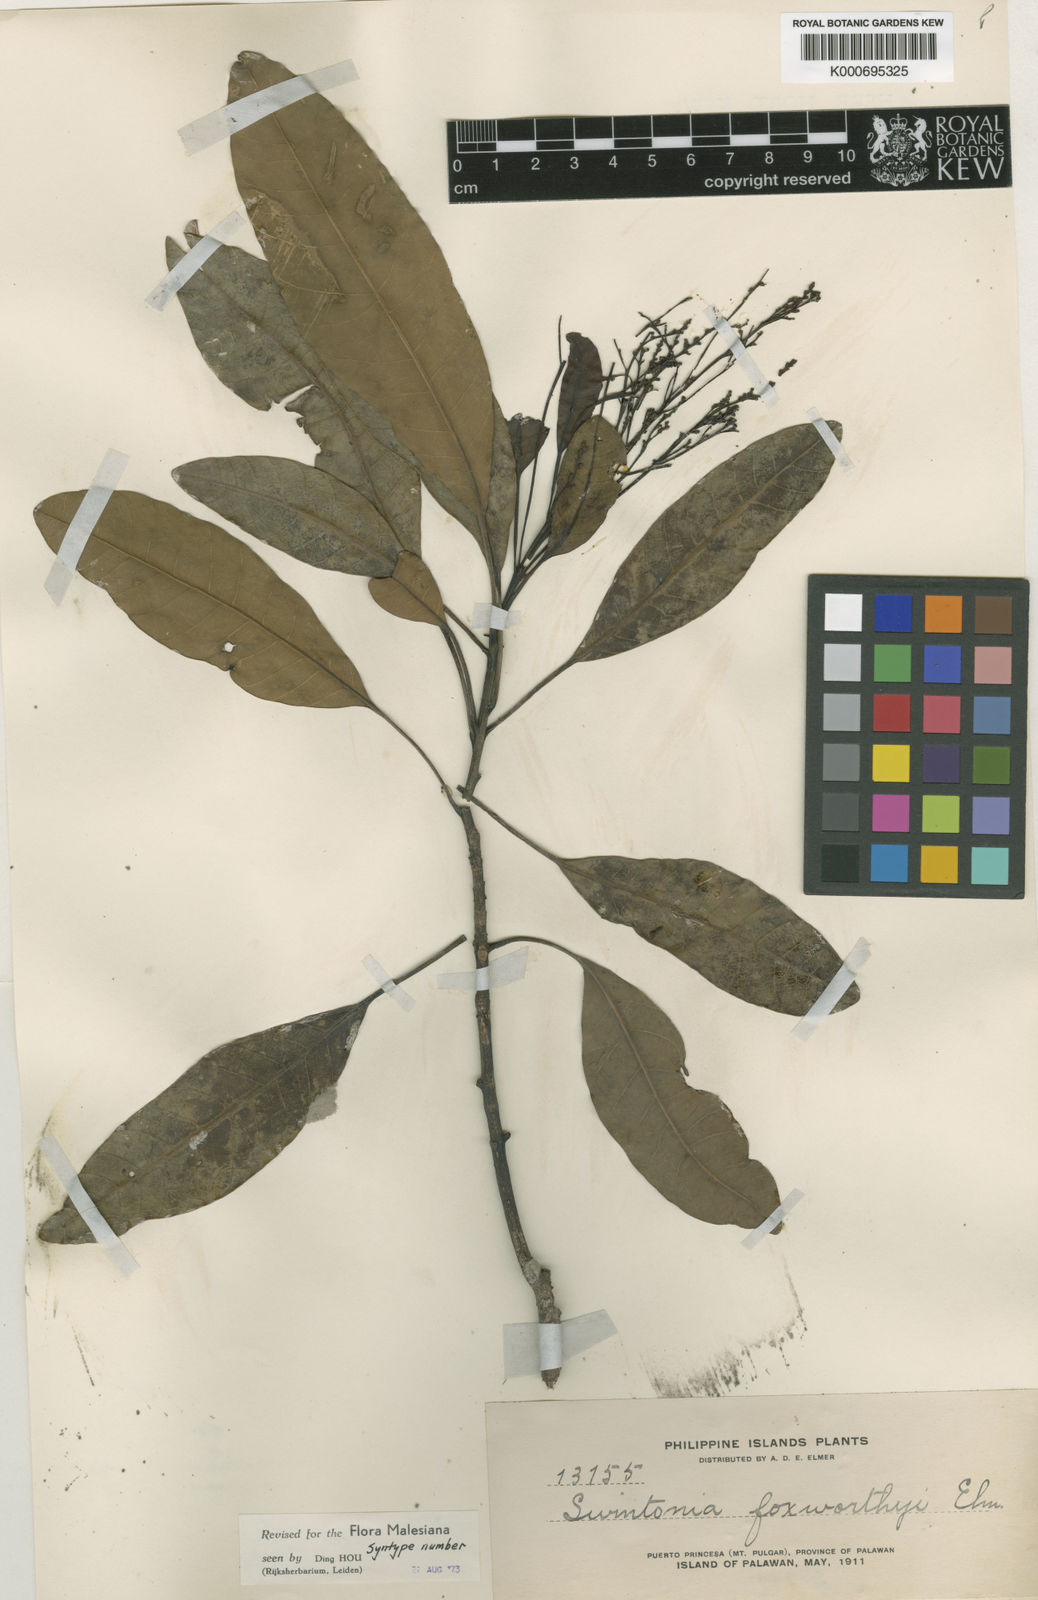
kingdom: Plantae
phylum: Tracheophyta
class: Magnoliopsida
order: Sapindales
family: Anacardiaceae
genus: Swintonia
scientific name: Swintonia foxworthyi
